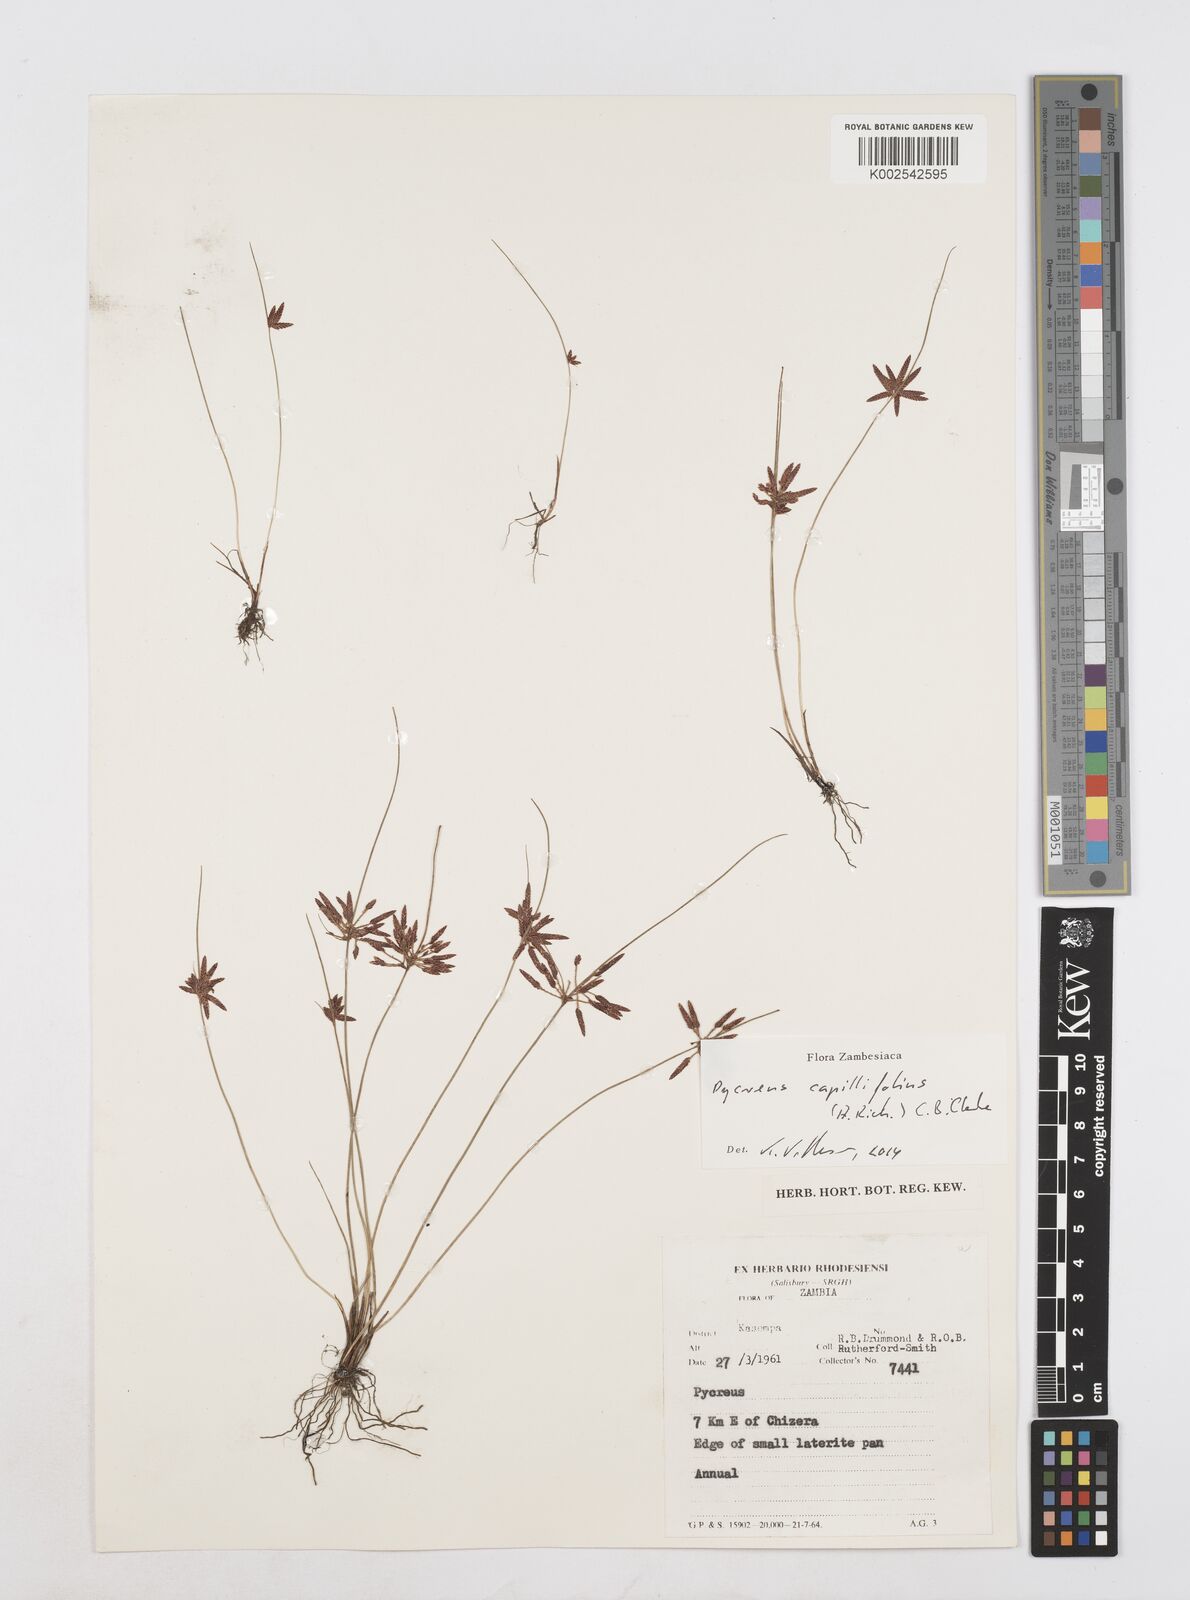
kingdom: Plantae
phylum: Tracheophyta
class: Liliopsida
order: Poales
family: Cyperaceae
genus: Cyperus
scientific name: Cyperus capillifolius
